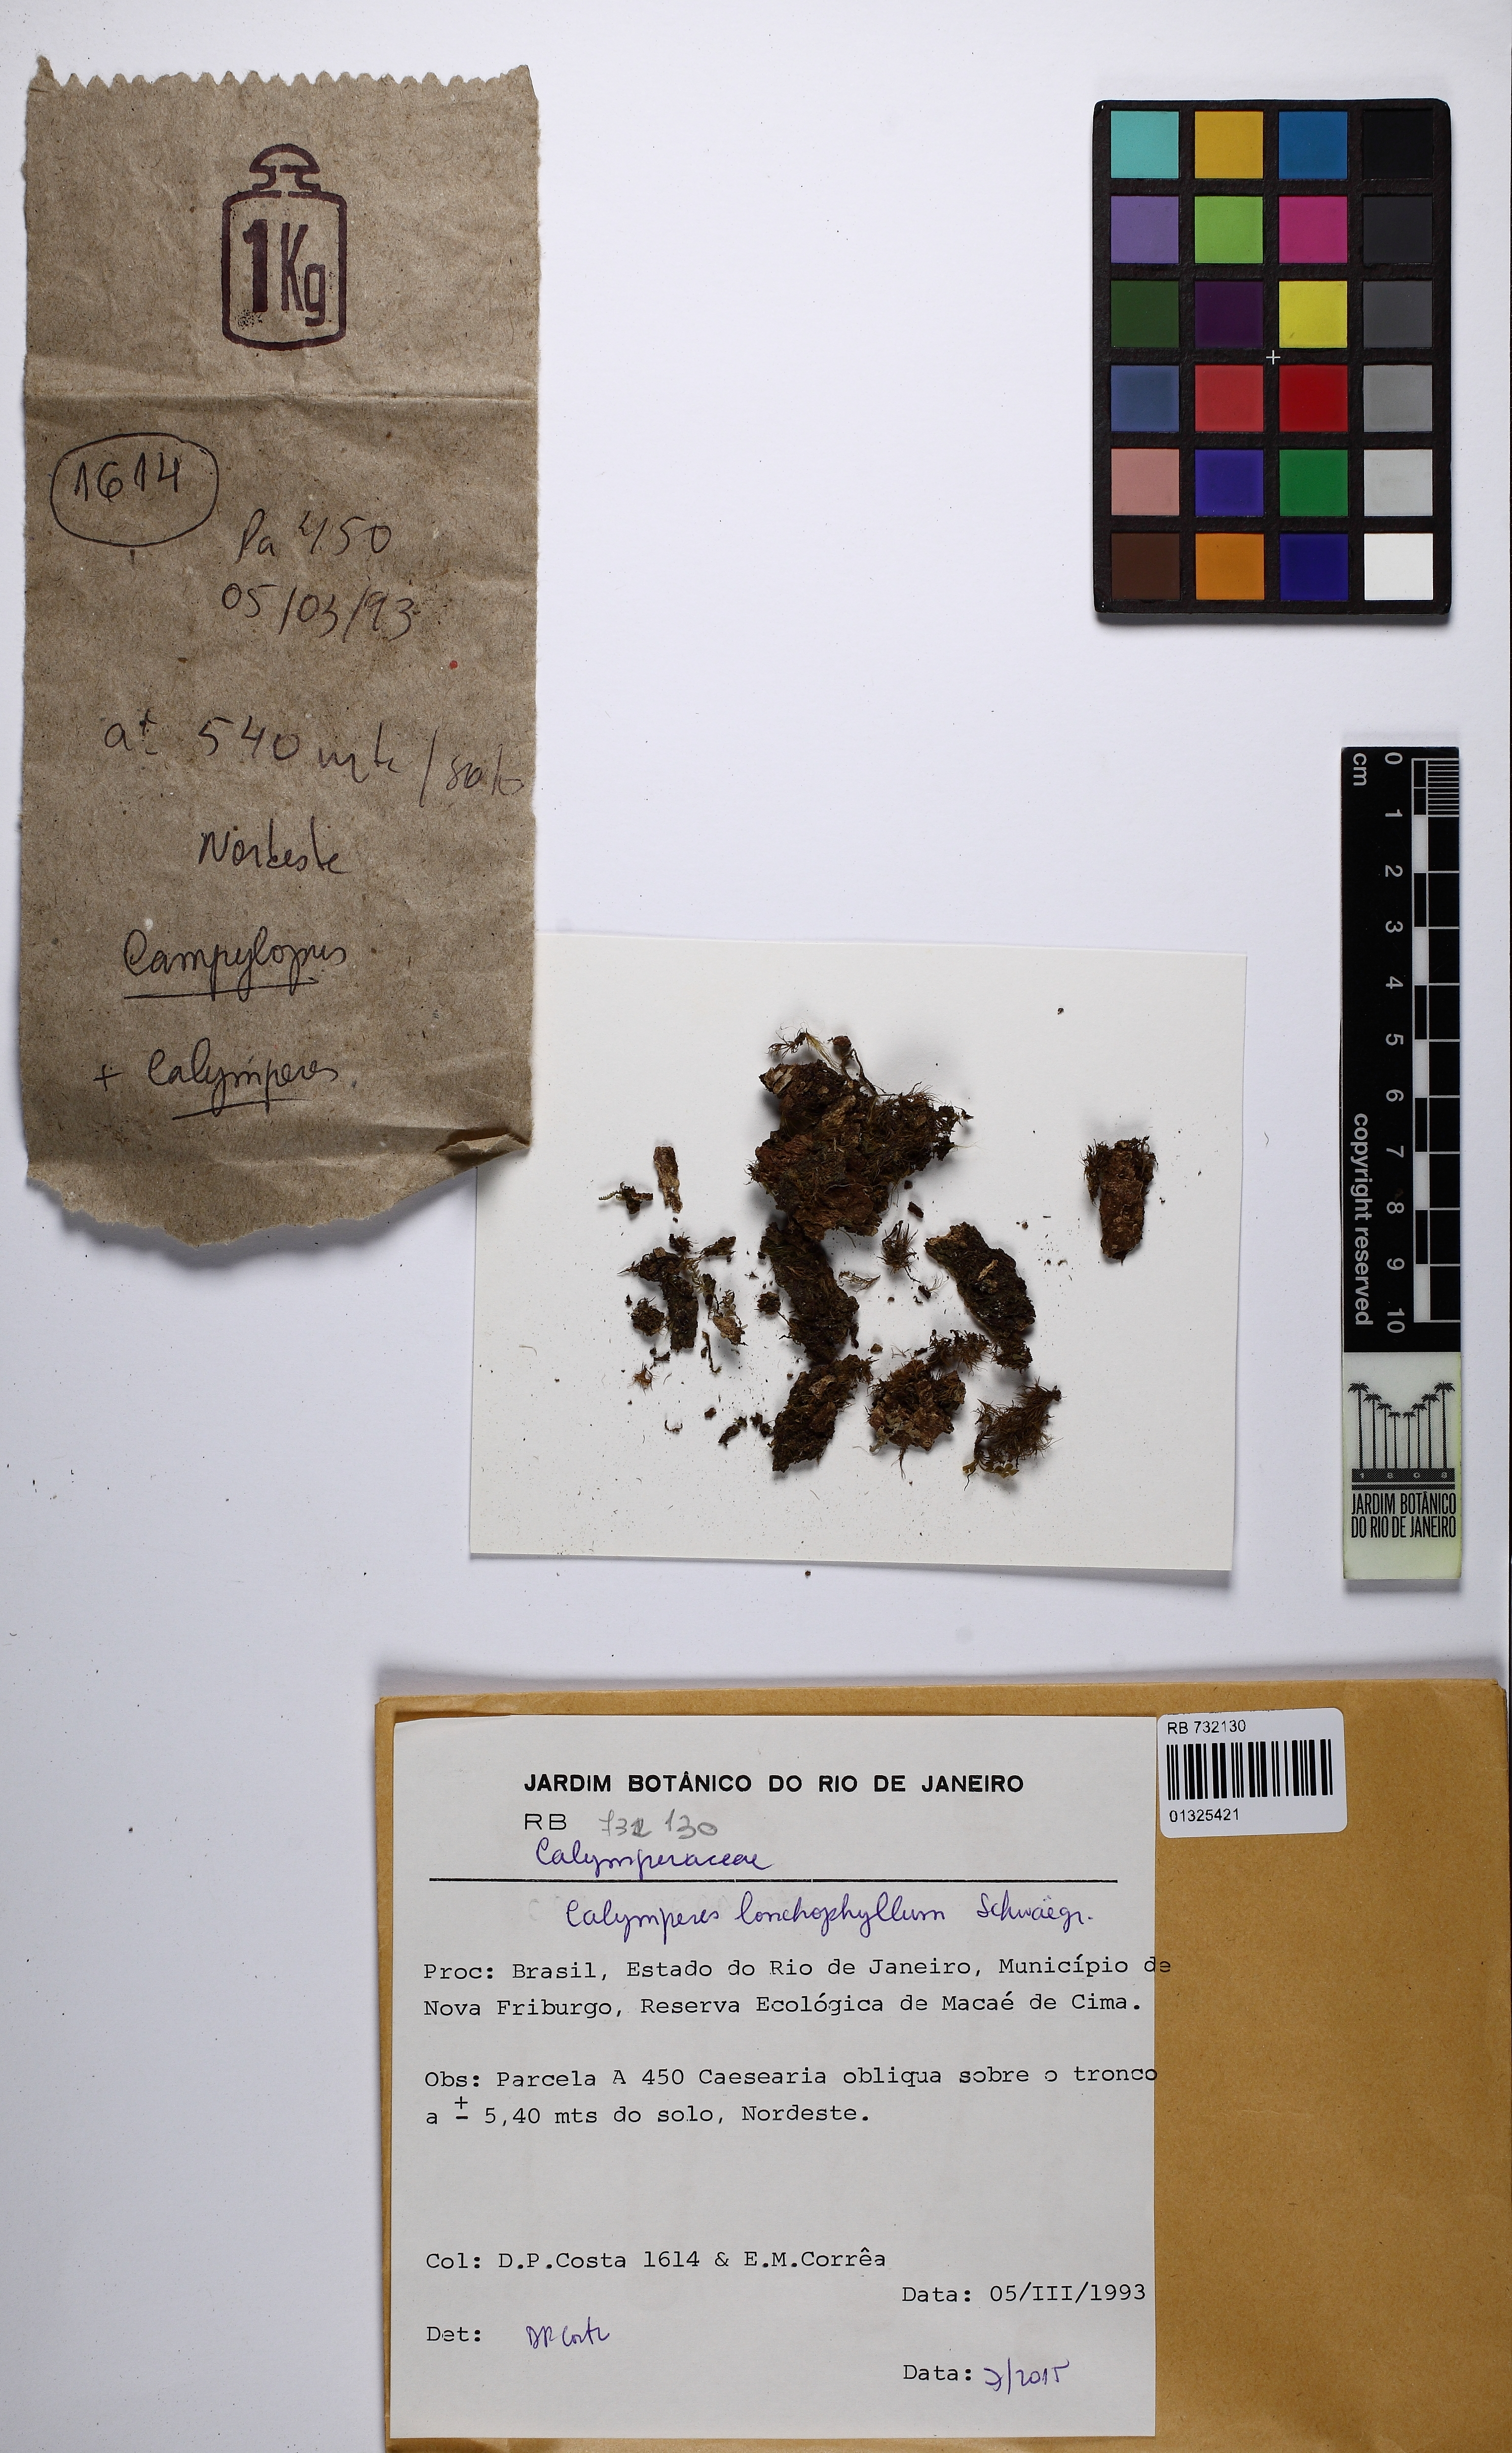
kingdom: Plantae
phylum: Bryophyta
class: Bryopsida
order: Dicranales
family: Calymperaceae
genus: Calymperes
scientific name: Calymperes lonchophyllum
